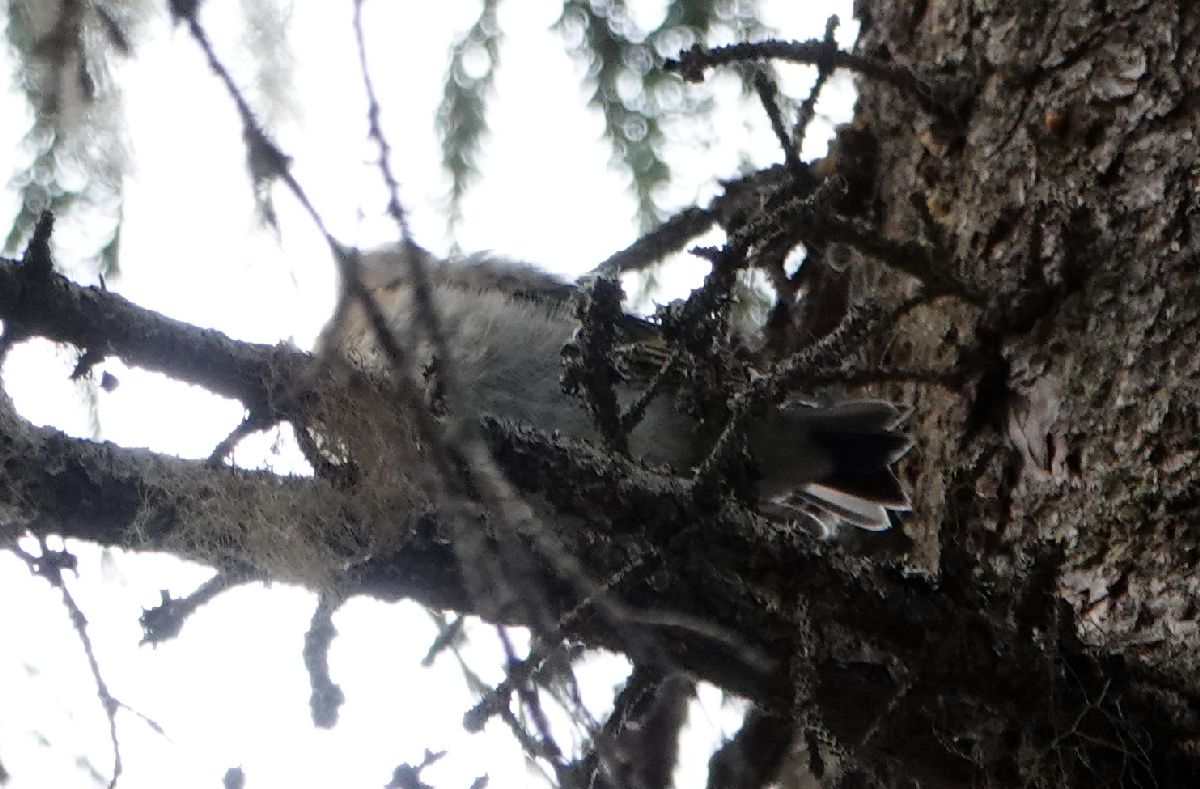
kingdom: Animalia
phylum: Chordata
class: Aves
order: Passeriformes
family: Fringillidae
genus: Fringilla
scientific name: Fringilla montifringilla
